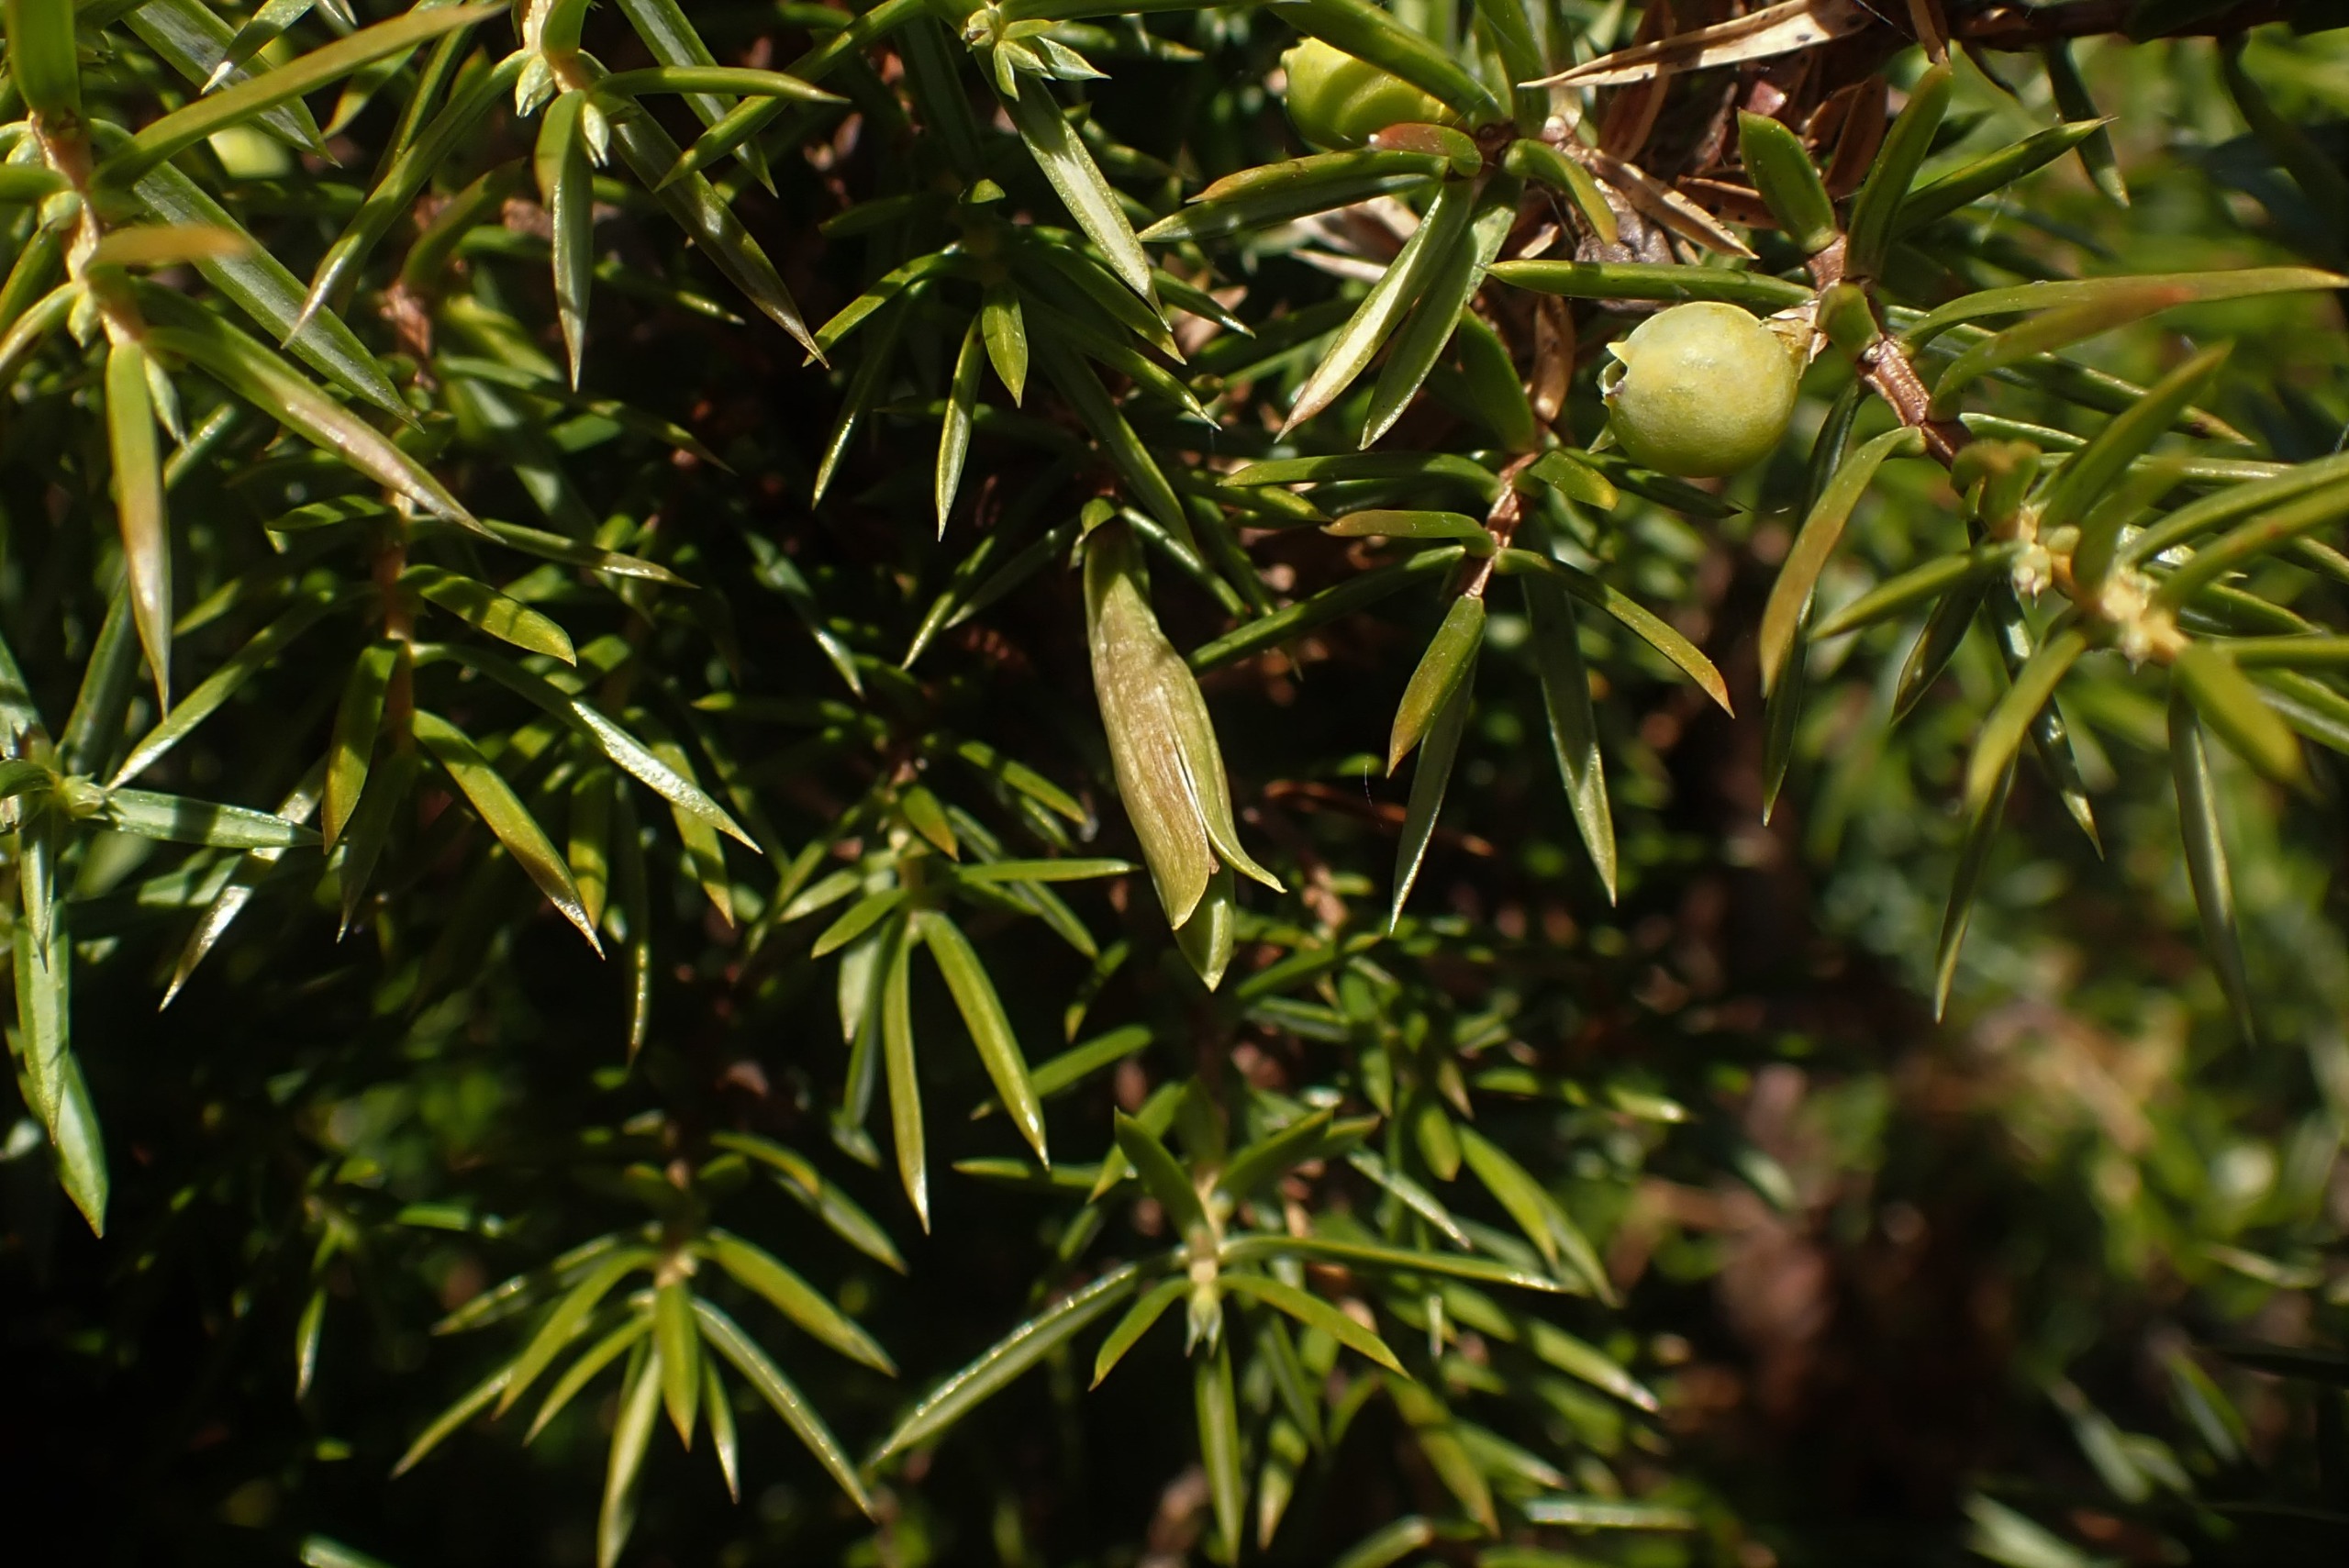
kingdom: Animalia
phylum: Arthropoda
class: Insecta
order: Diptera
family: Cecidomyiidae
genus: Oligotrophus
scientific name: Oligotrophus juniperinus
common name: Kikbærgalmyg
